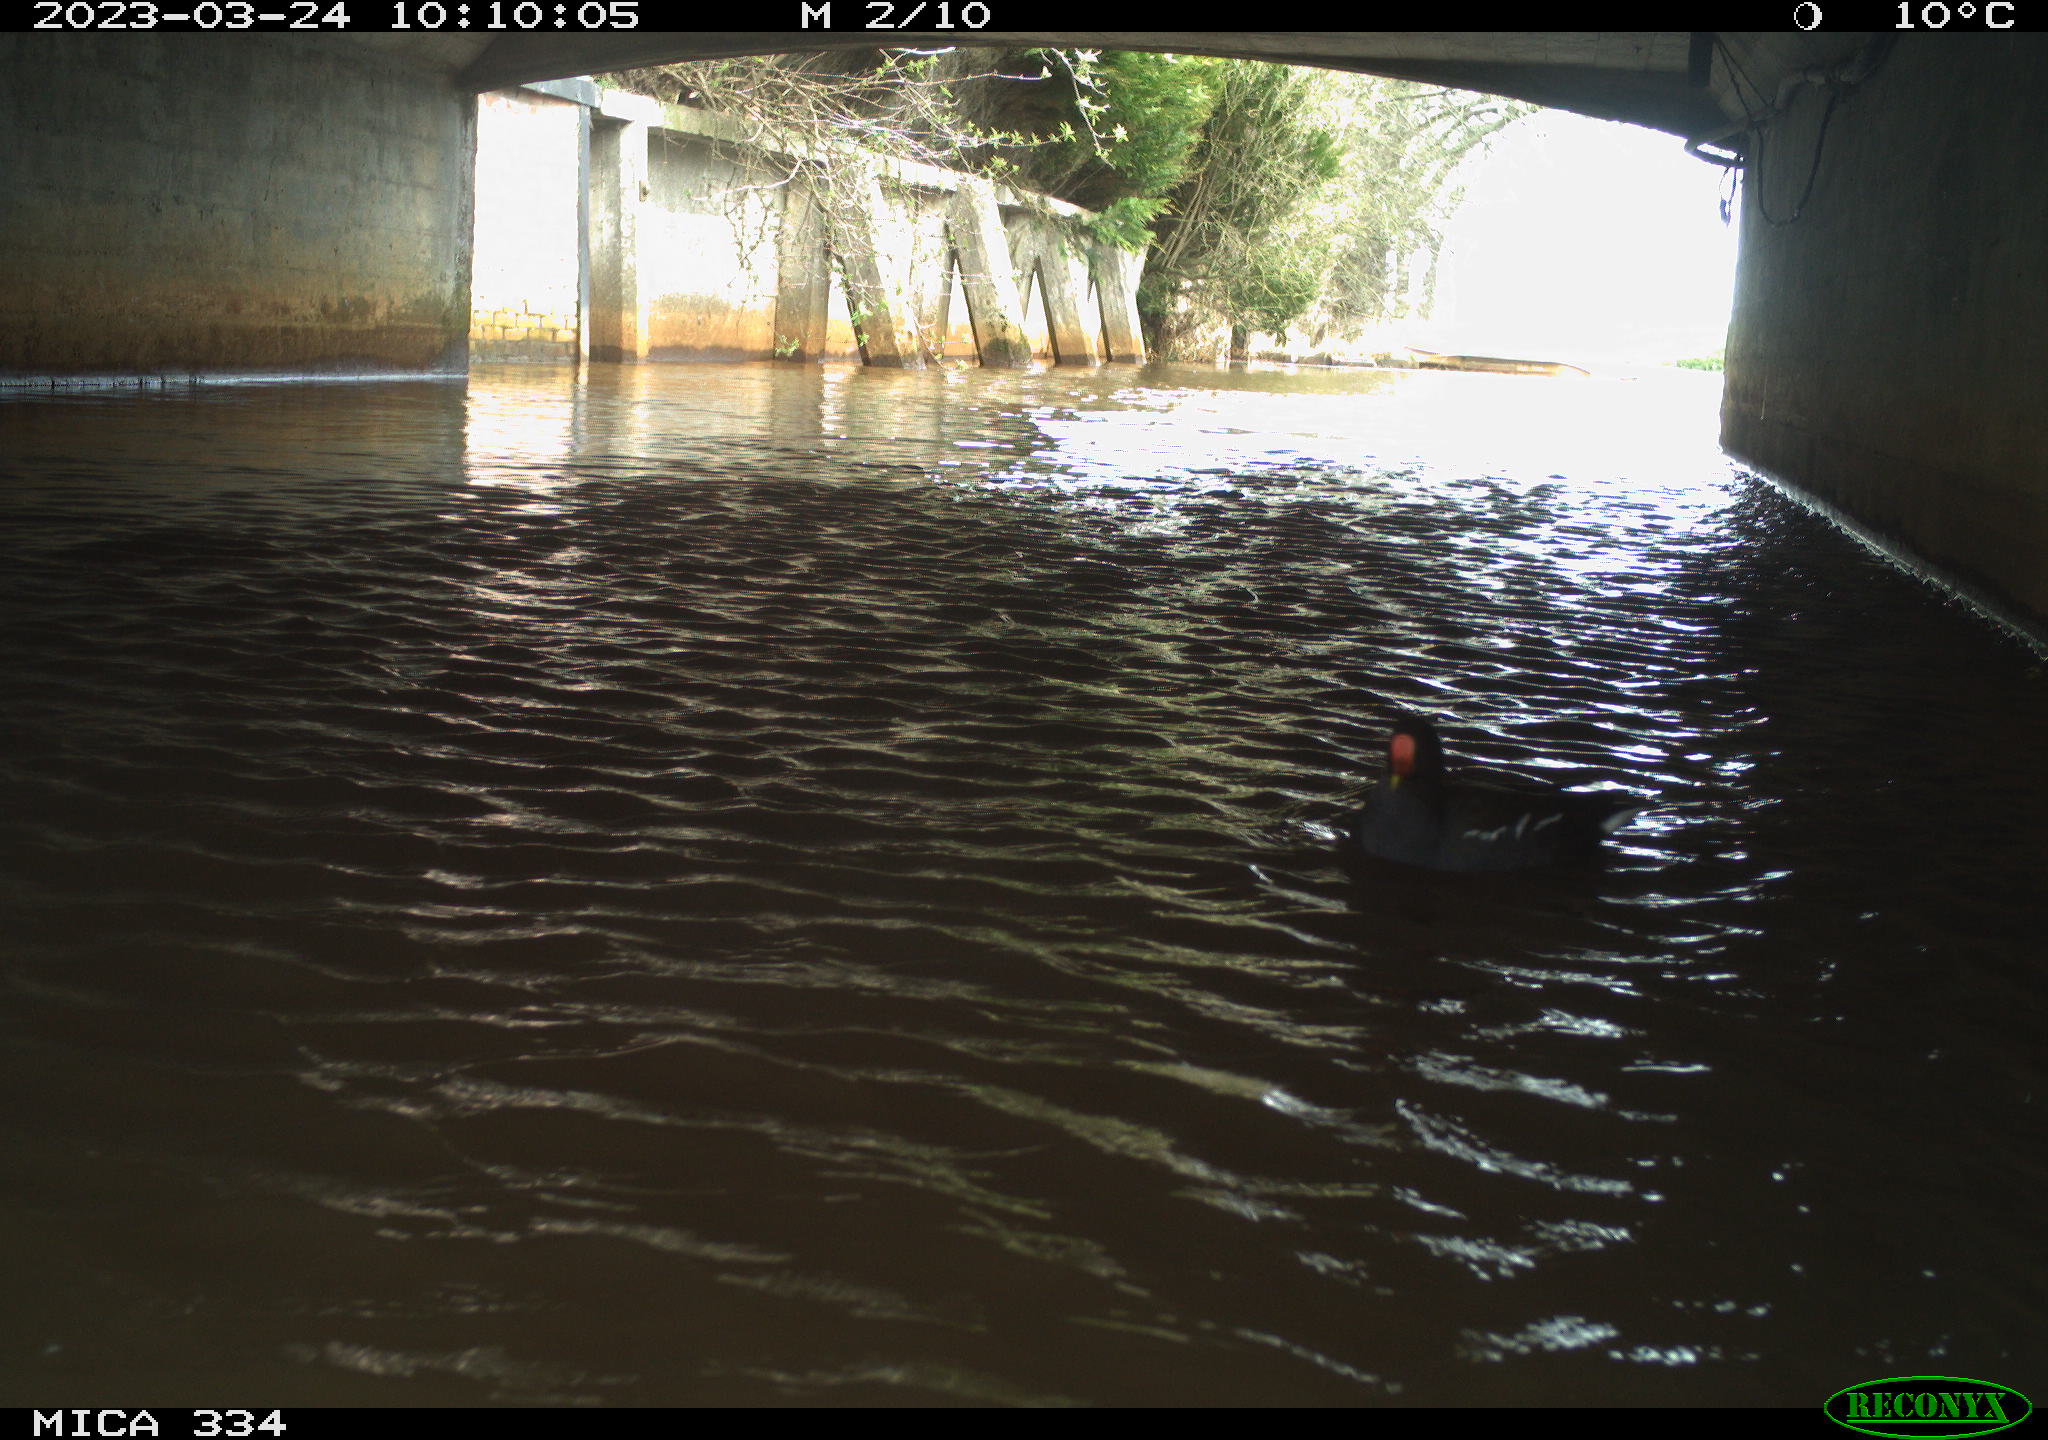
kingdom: Animalia
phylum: Chordata
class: Aves
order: Gruiformes
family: Rallidae
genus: Gallinula
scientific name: Gallinula chloropus
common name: Common moorhen
